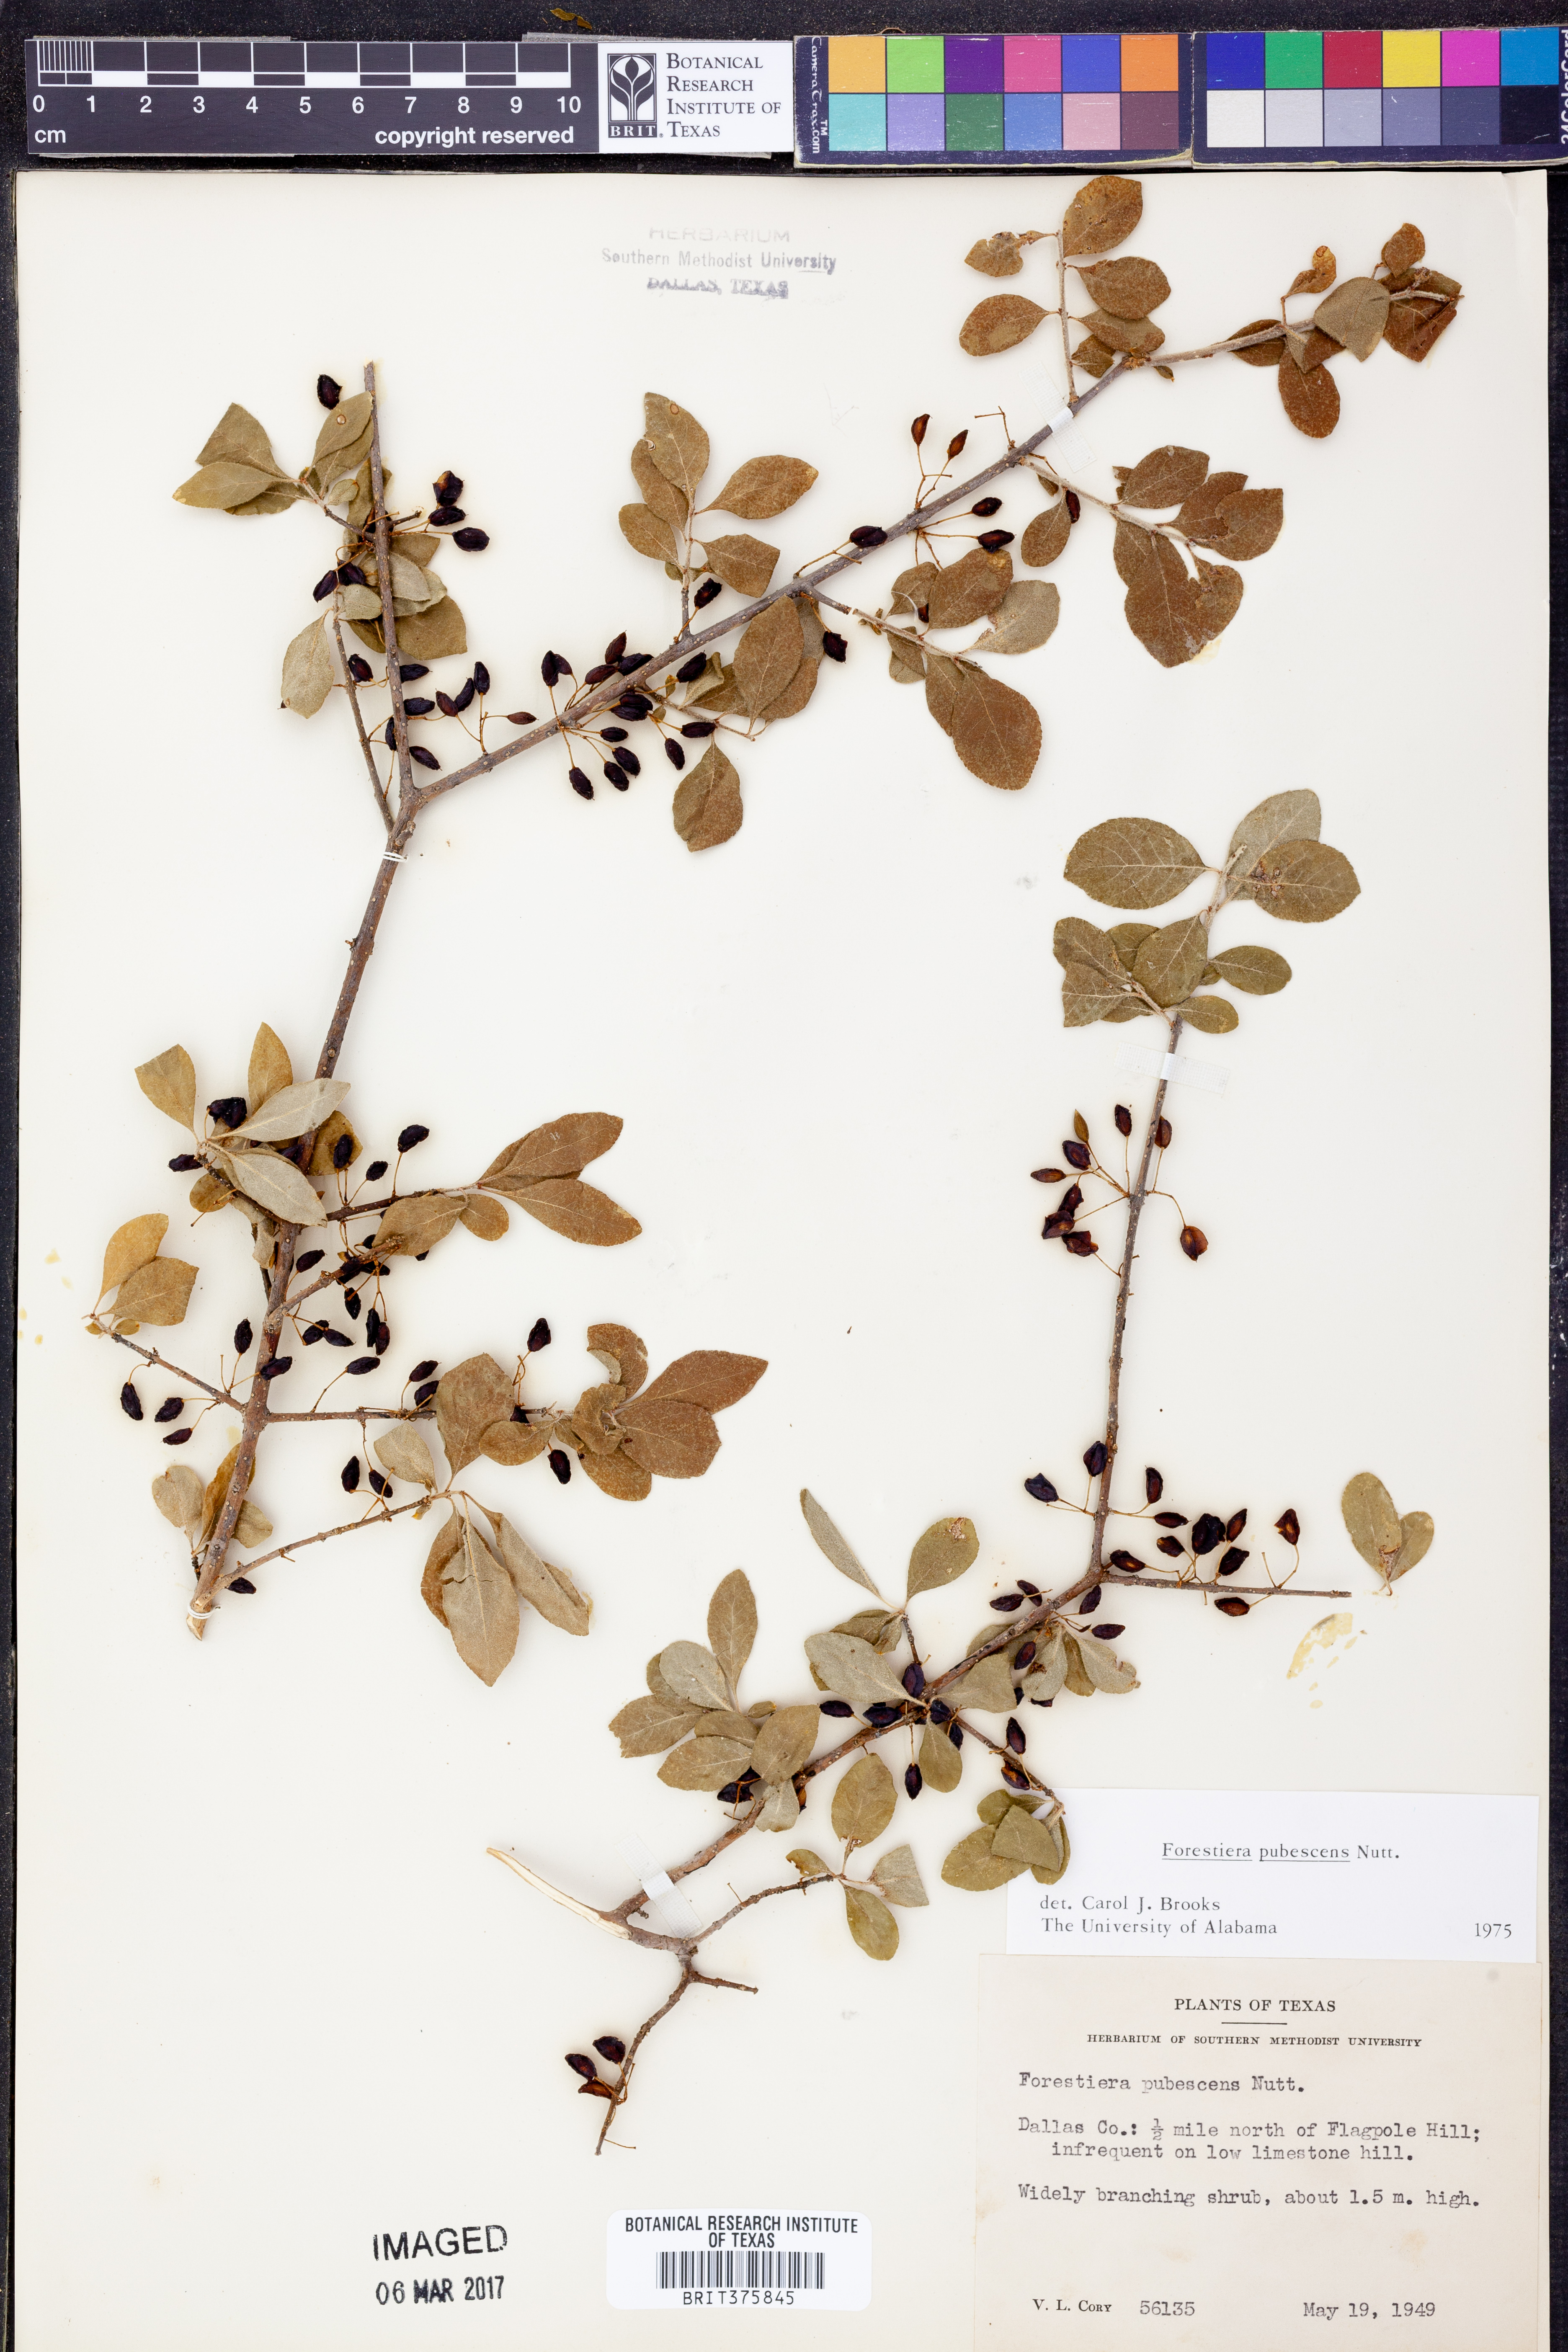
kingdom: Plantae
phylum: Tracheophyta
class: Magnoliopsida
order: Lamiales
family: Oleaceae
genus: Forestiera
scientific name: Forestiera pubescens
